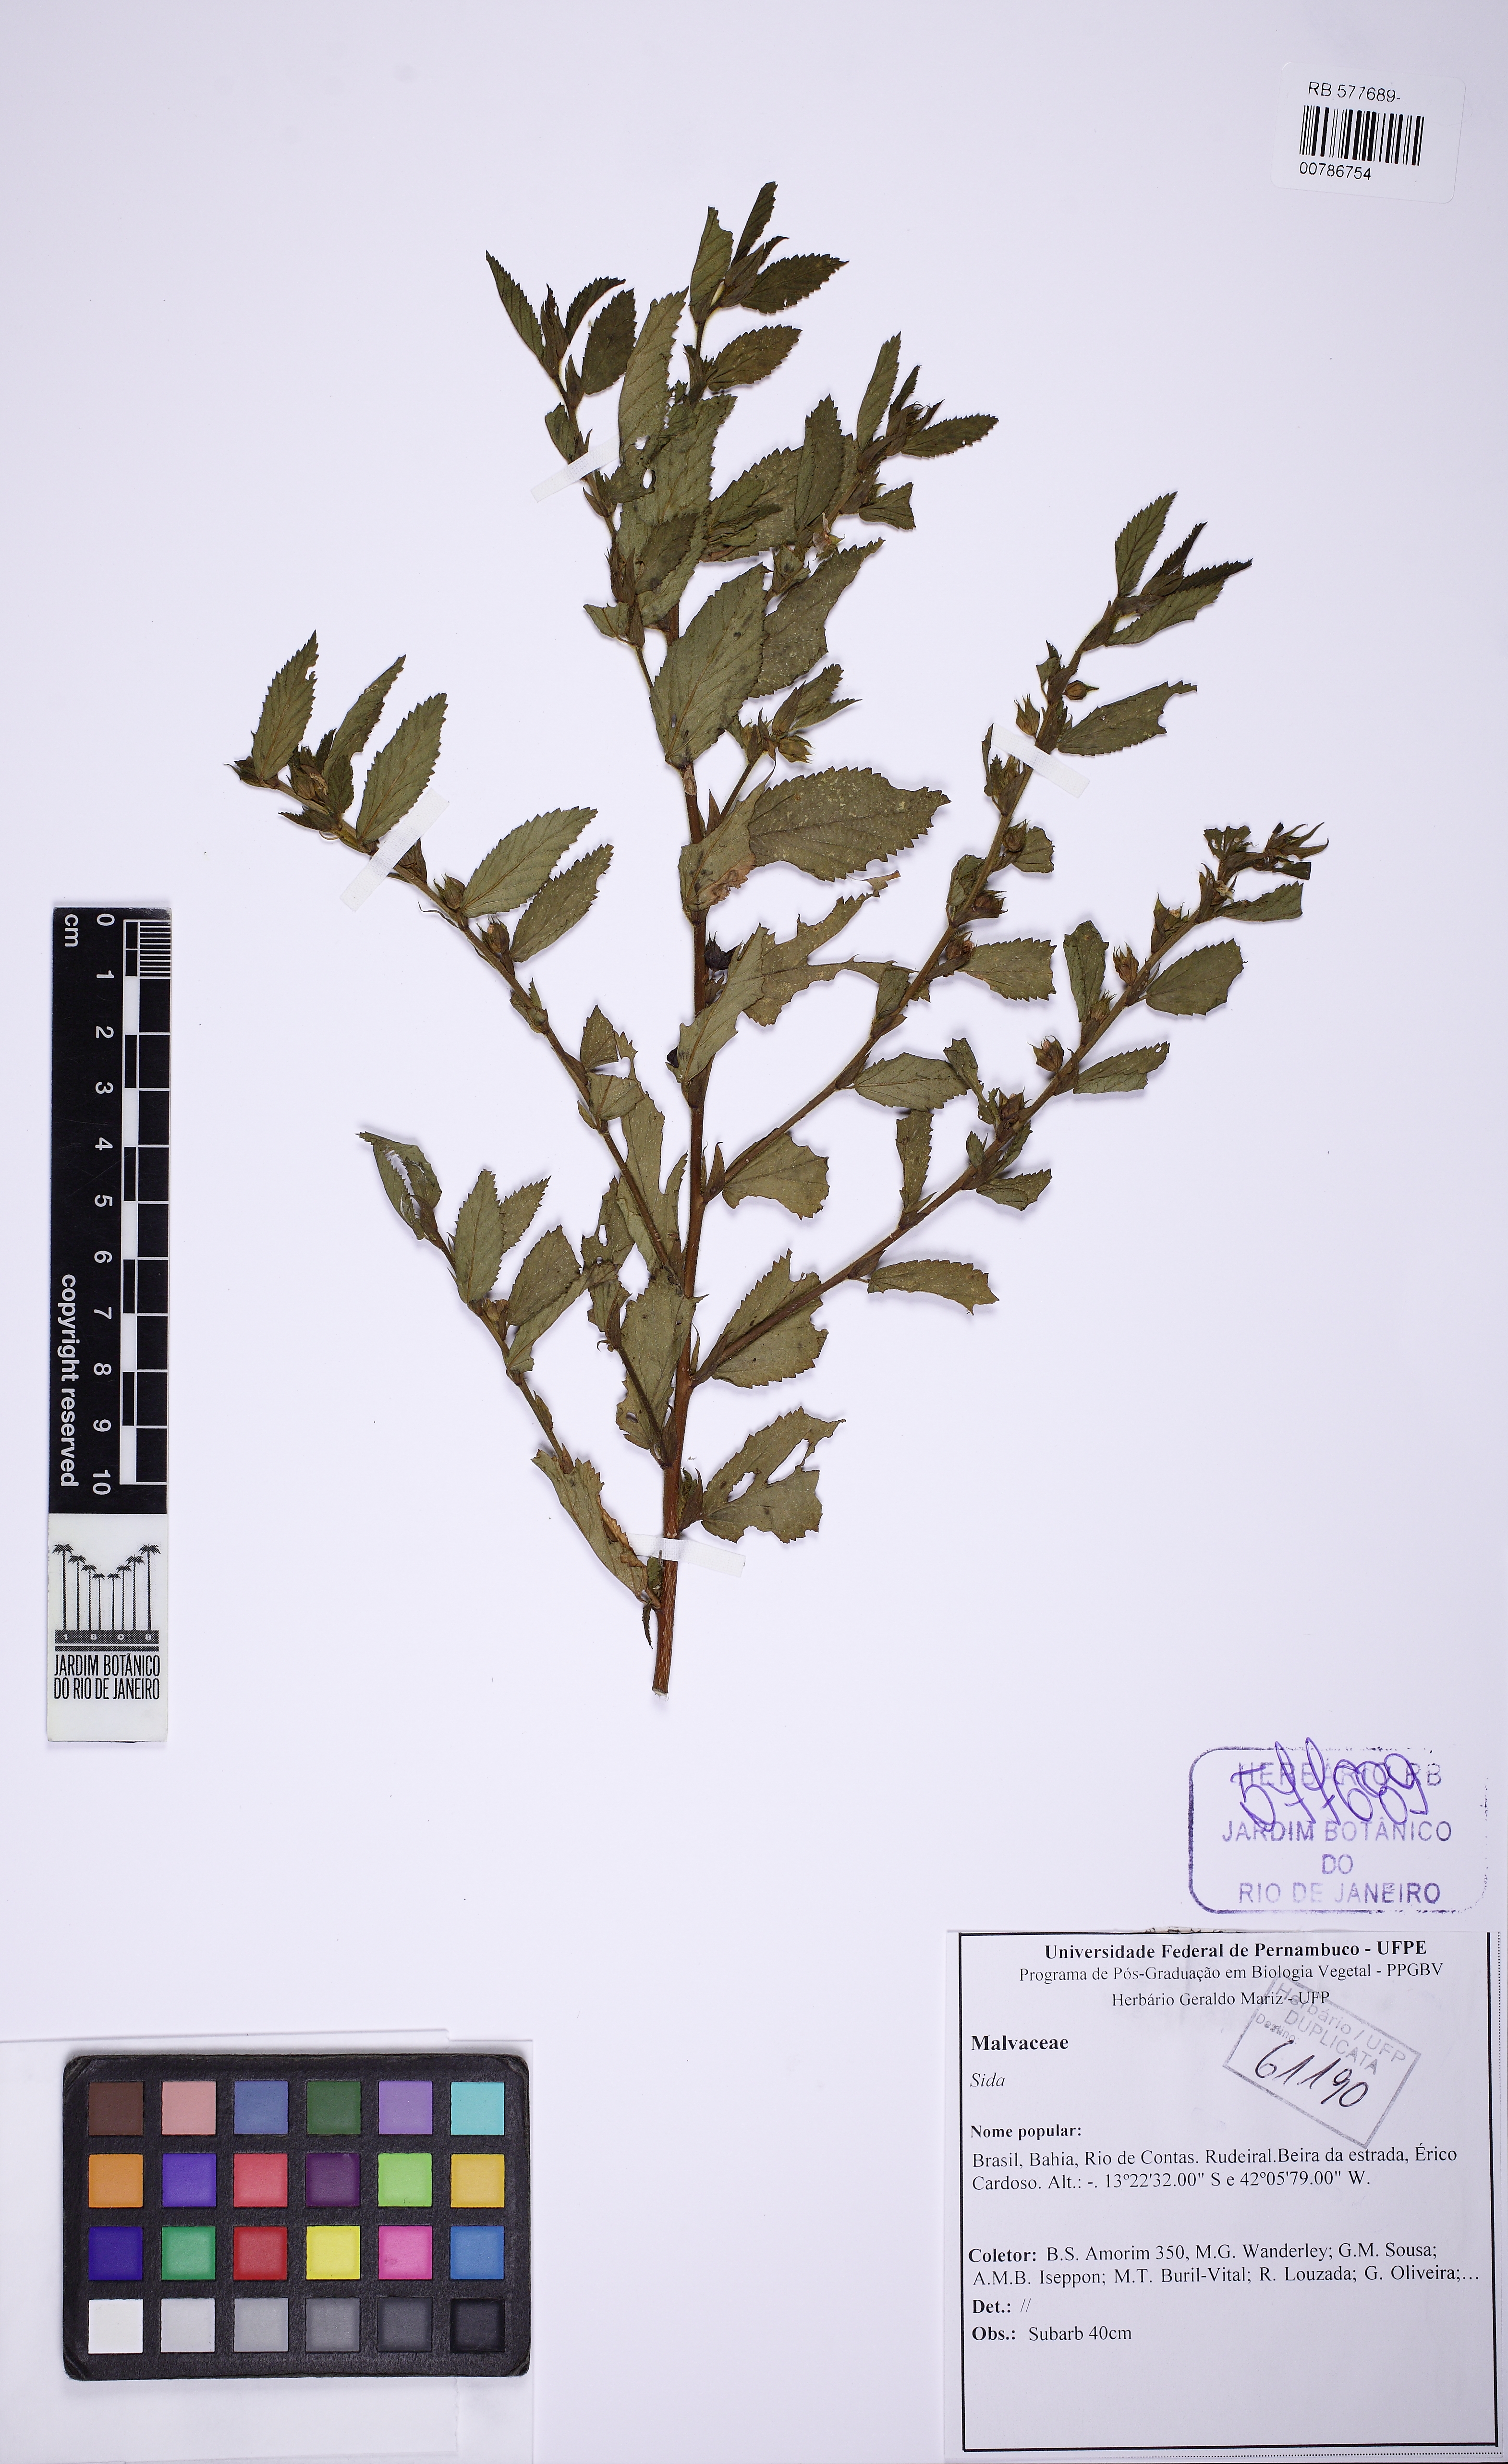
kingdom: Plantae
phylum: Tracheophyta
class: Magnoliopsida
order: Malvales
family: Malvaceae
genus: Sida
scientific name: Sida glomerata
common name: Clustered fanpetals
